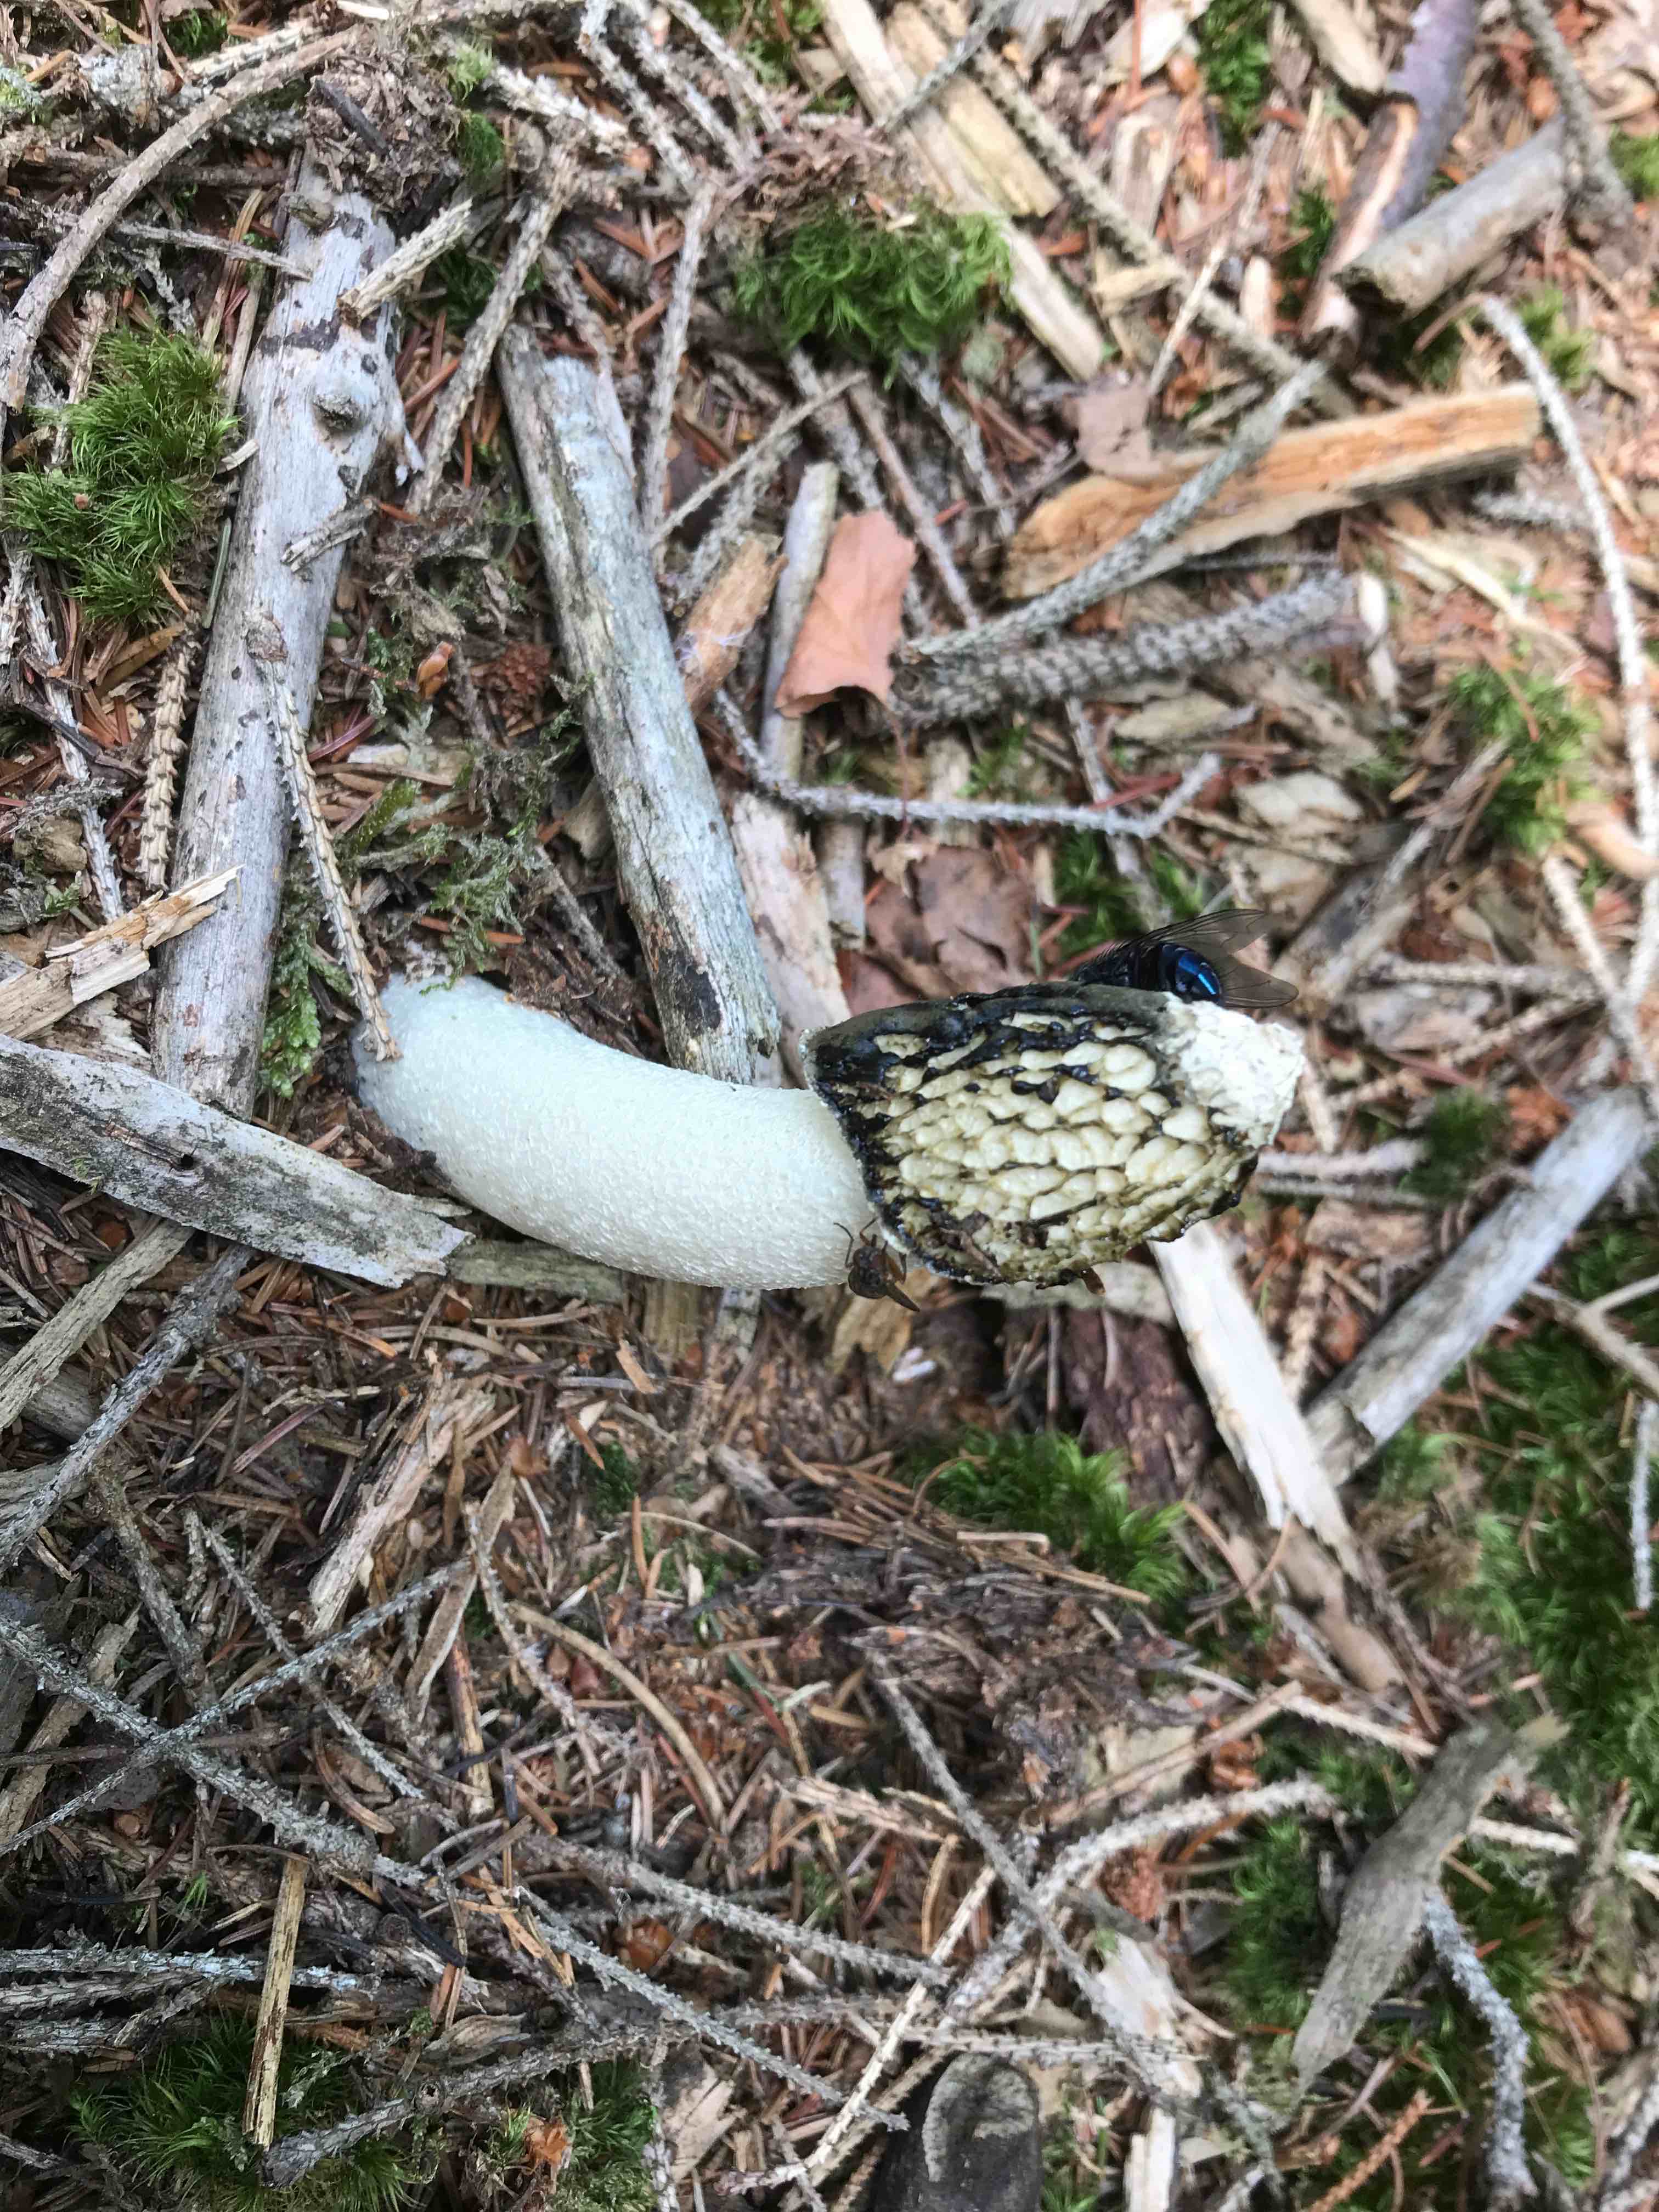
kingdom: Fungi
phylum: Basidiomycota
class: Agaricomycetes
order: Phallales
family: Phallaceae
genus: Phallus
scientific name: Phallus impudicus
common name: almindelig stinksvamp
